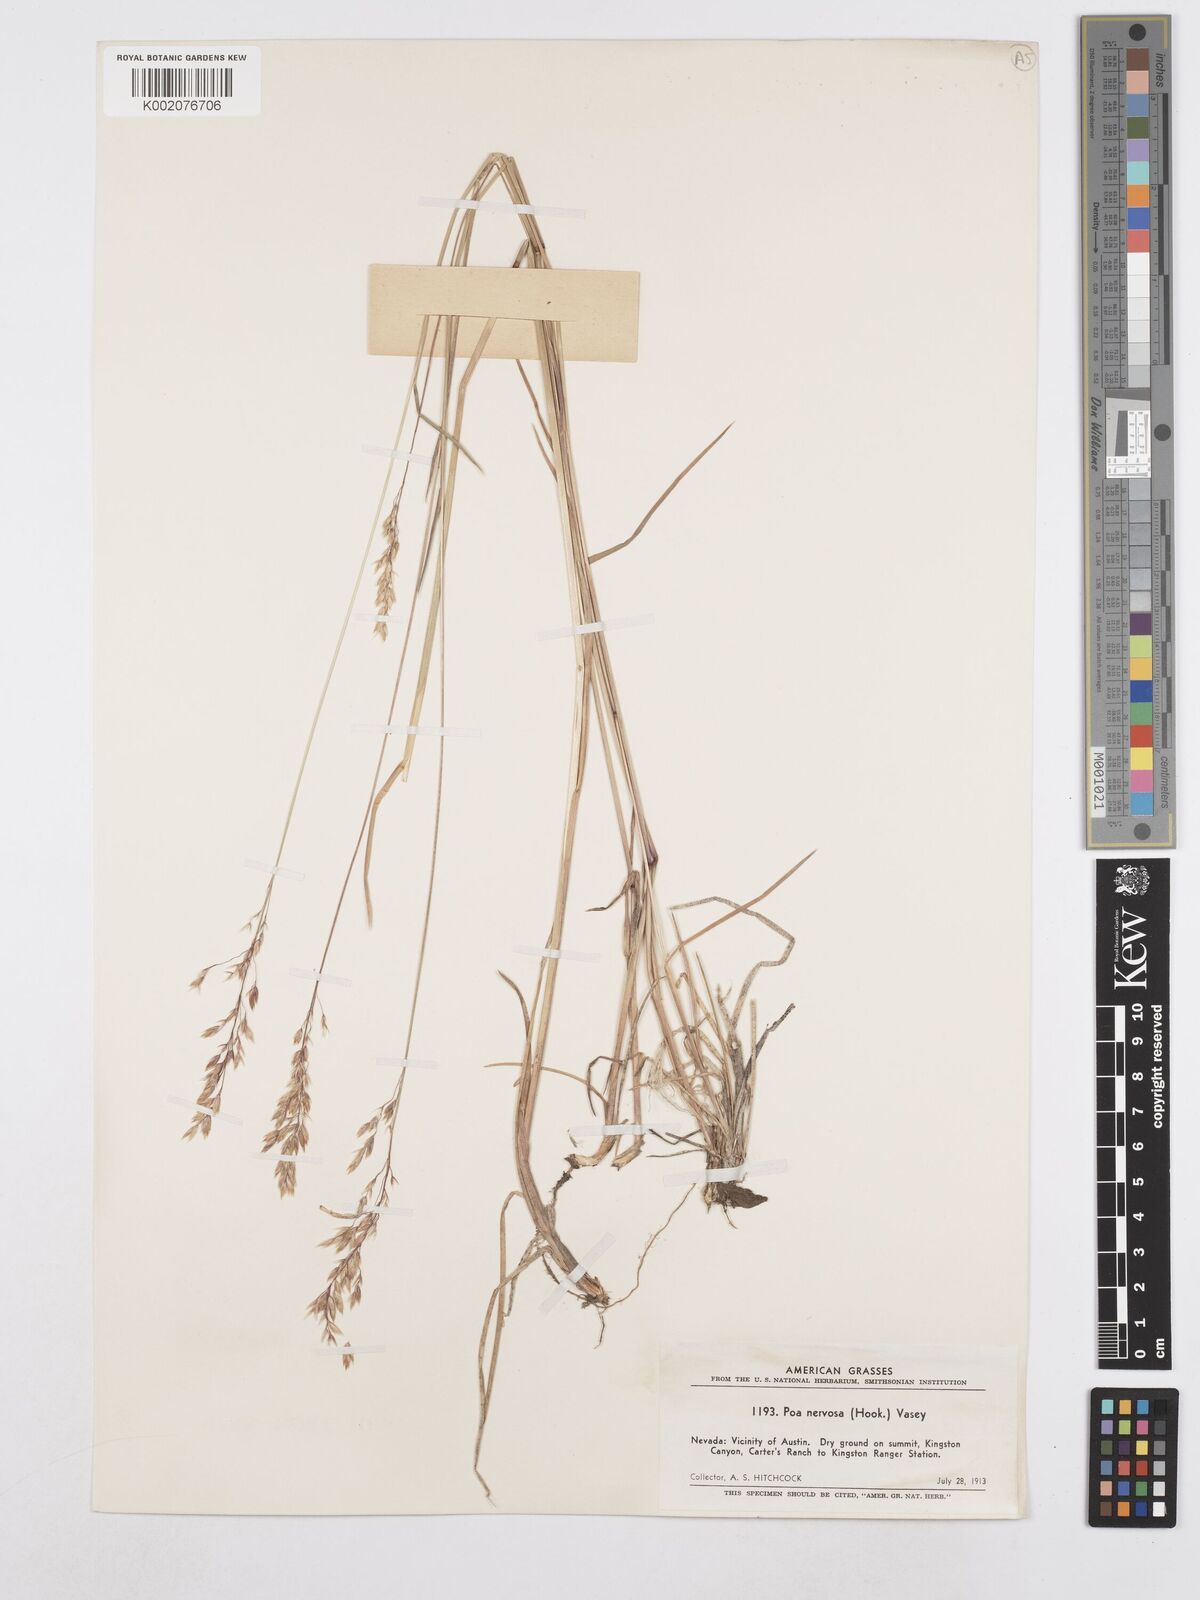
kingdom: Plantae
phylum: Tracheophyta
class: Liliopsida
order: Poales
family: Poaceae
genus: Poa
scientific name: Poa nervosa
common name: Hooker's bluegrass
